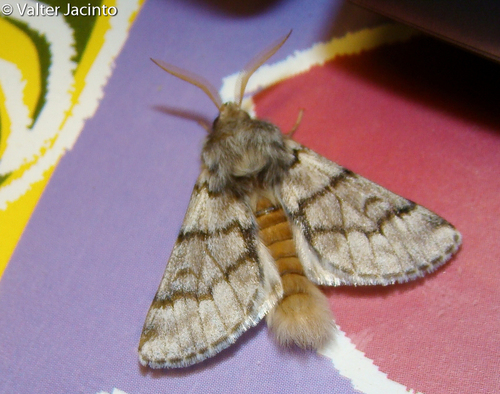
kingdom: Animalia
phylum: Arthropoda
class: Insecta
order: Lepidoptera
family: Notodontidae
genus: Thaumetopoea
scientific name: Thaumetopoea pityocampa
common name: Pine processionary
